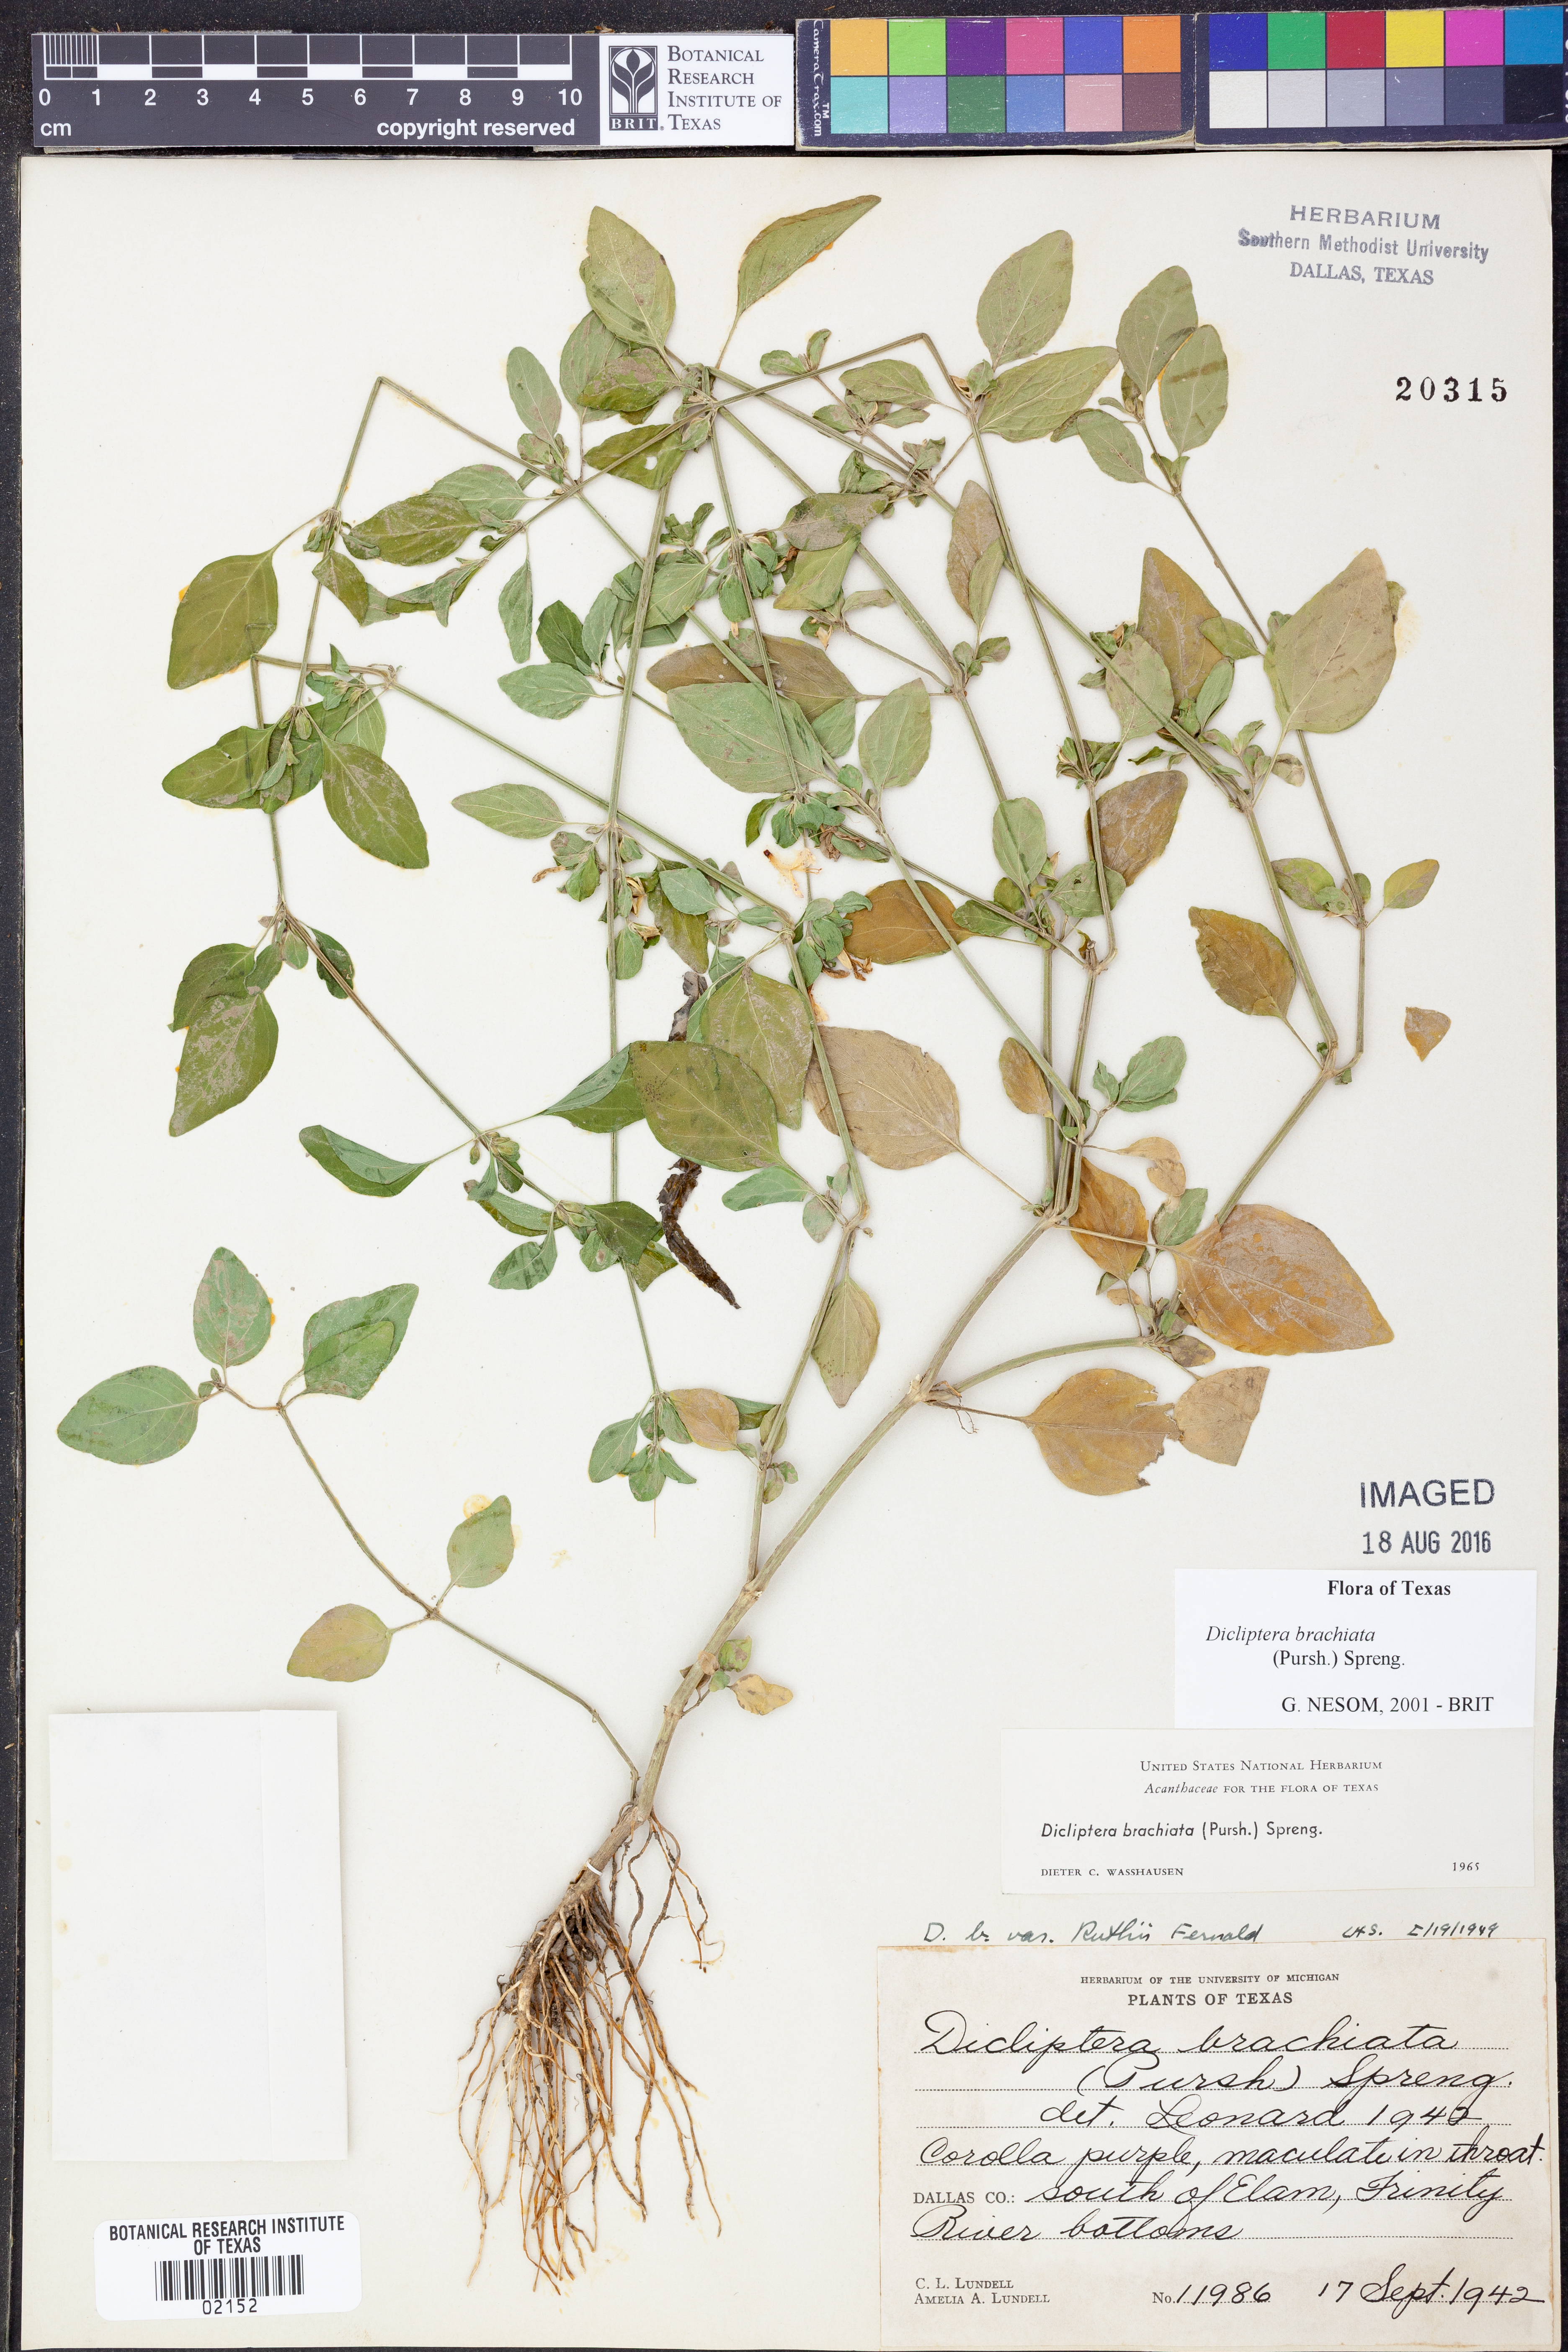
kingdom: Plantae
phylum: Tracheophyta
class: Magnoliopsida
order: Lamiales
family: Acanthaceae
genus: Dicliptera
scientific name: Dicliptera brachiata
